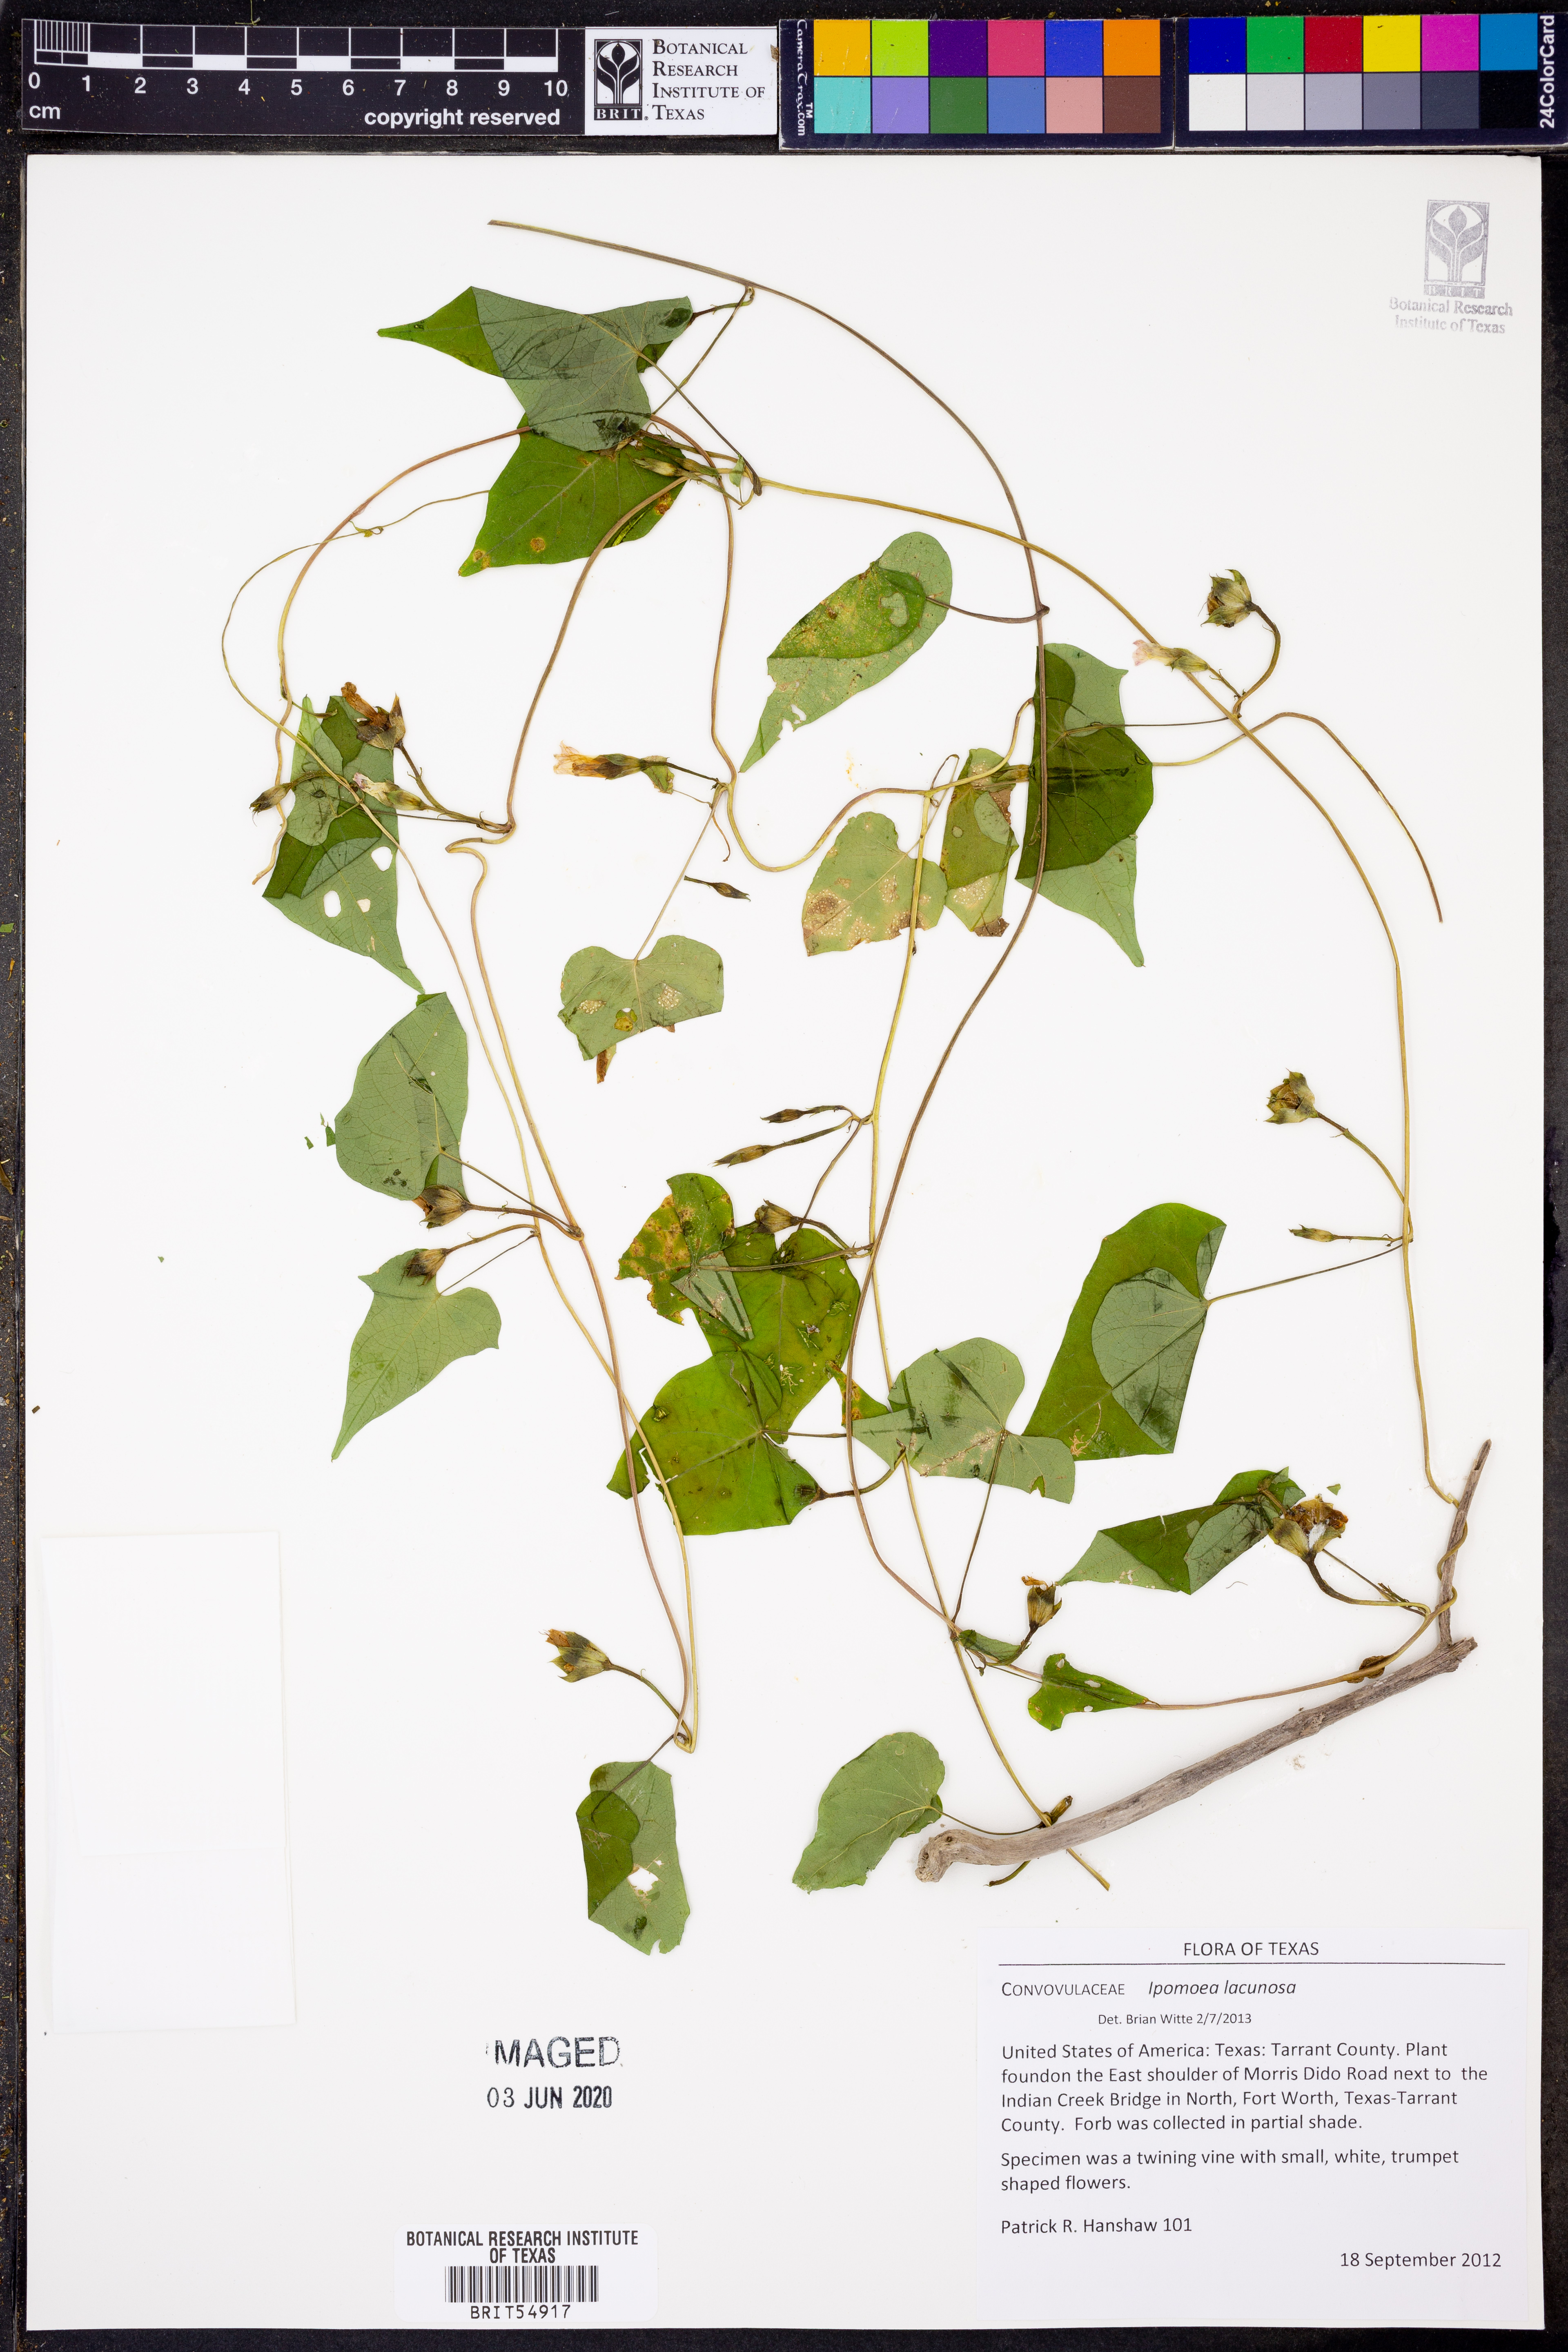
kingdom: Plantae
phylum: Tracheophyta
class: Magnoliopsida
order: Solanales
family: Convolvulaceae
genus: Ipomoea
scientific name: Ipomoea lacunosa
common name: White morning-glory
